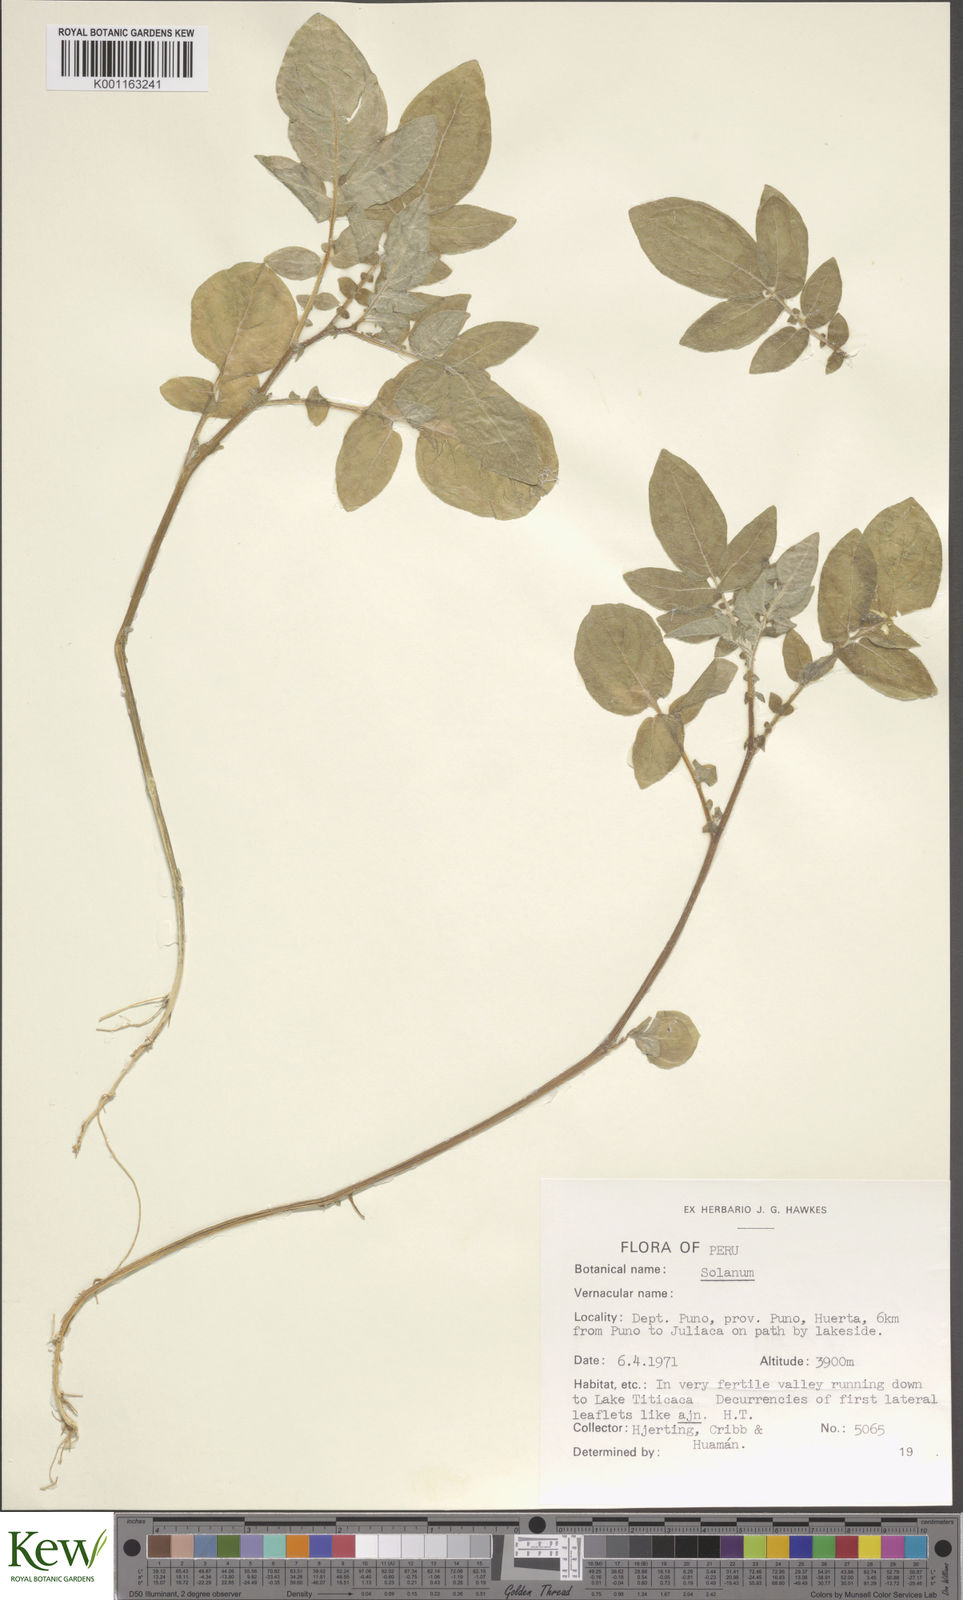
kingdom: Plantae
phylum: Tracheophyta
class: Magnoliopsida
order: Solanales
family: Solanaceae
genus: Solanum
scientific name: Solanum candolleanum
